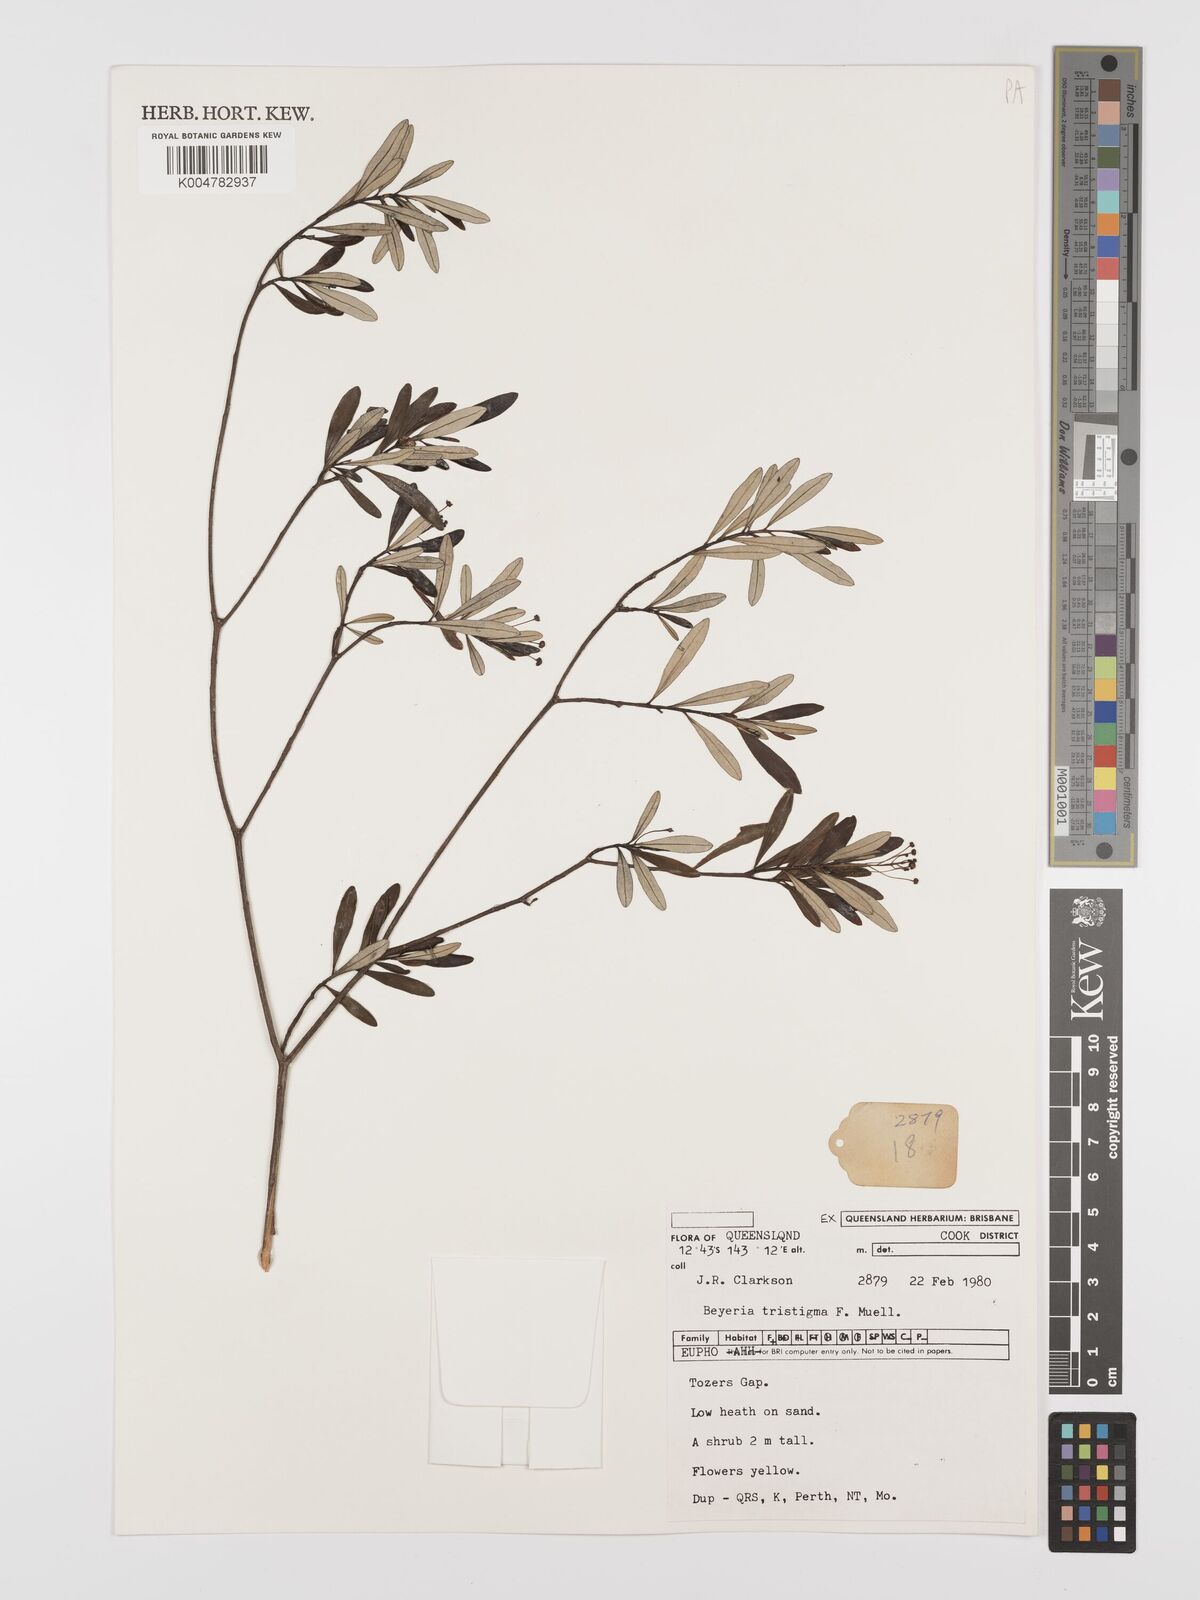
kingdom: Plantae
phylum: Tracheophyta
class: Magnoliopsida
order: Malpighiales
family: Euphorbiaceae
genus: Shonia
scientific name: Shonia tristigma
